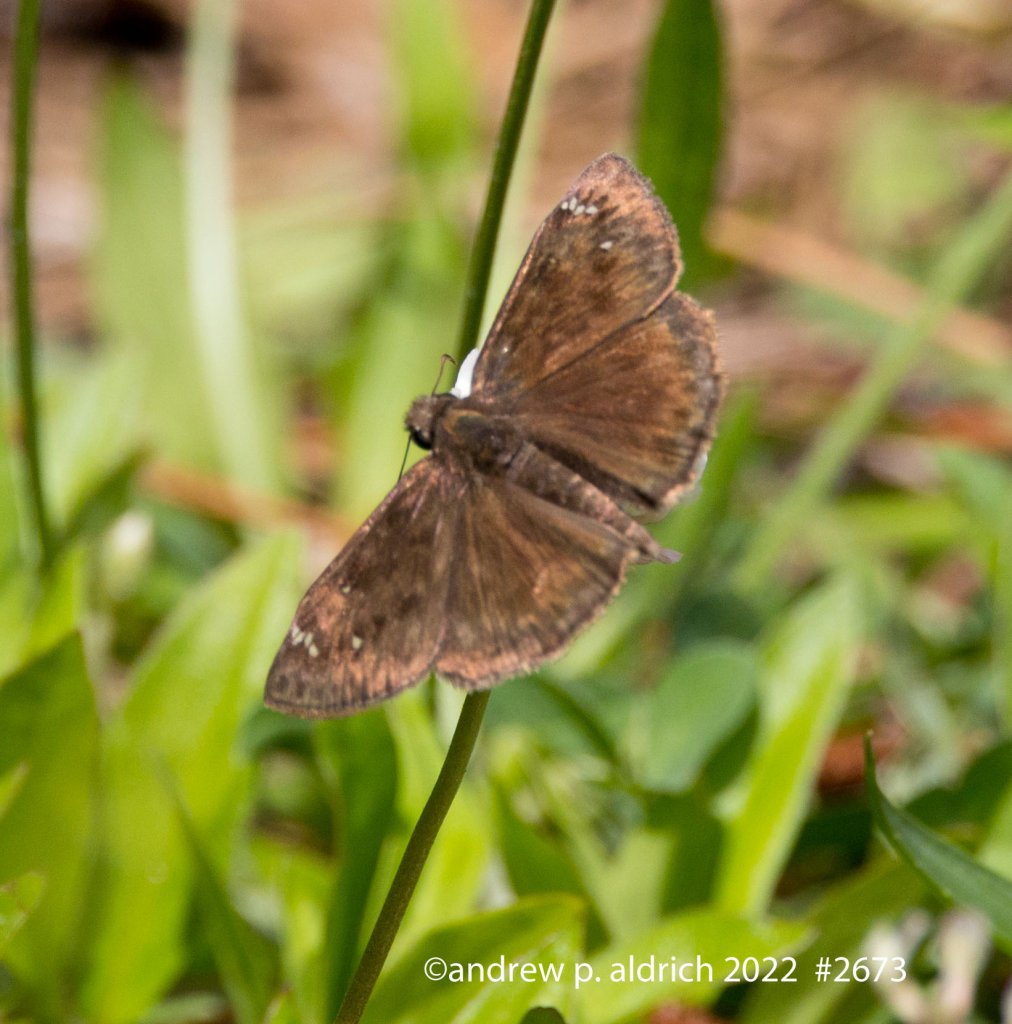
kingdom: Animalia
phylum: Arthropoda
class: Insecta
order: Lepidoptera
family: Hesperiidae
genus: Erynnis
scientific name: Erynnis
